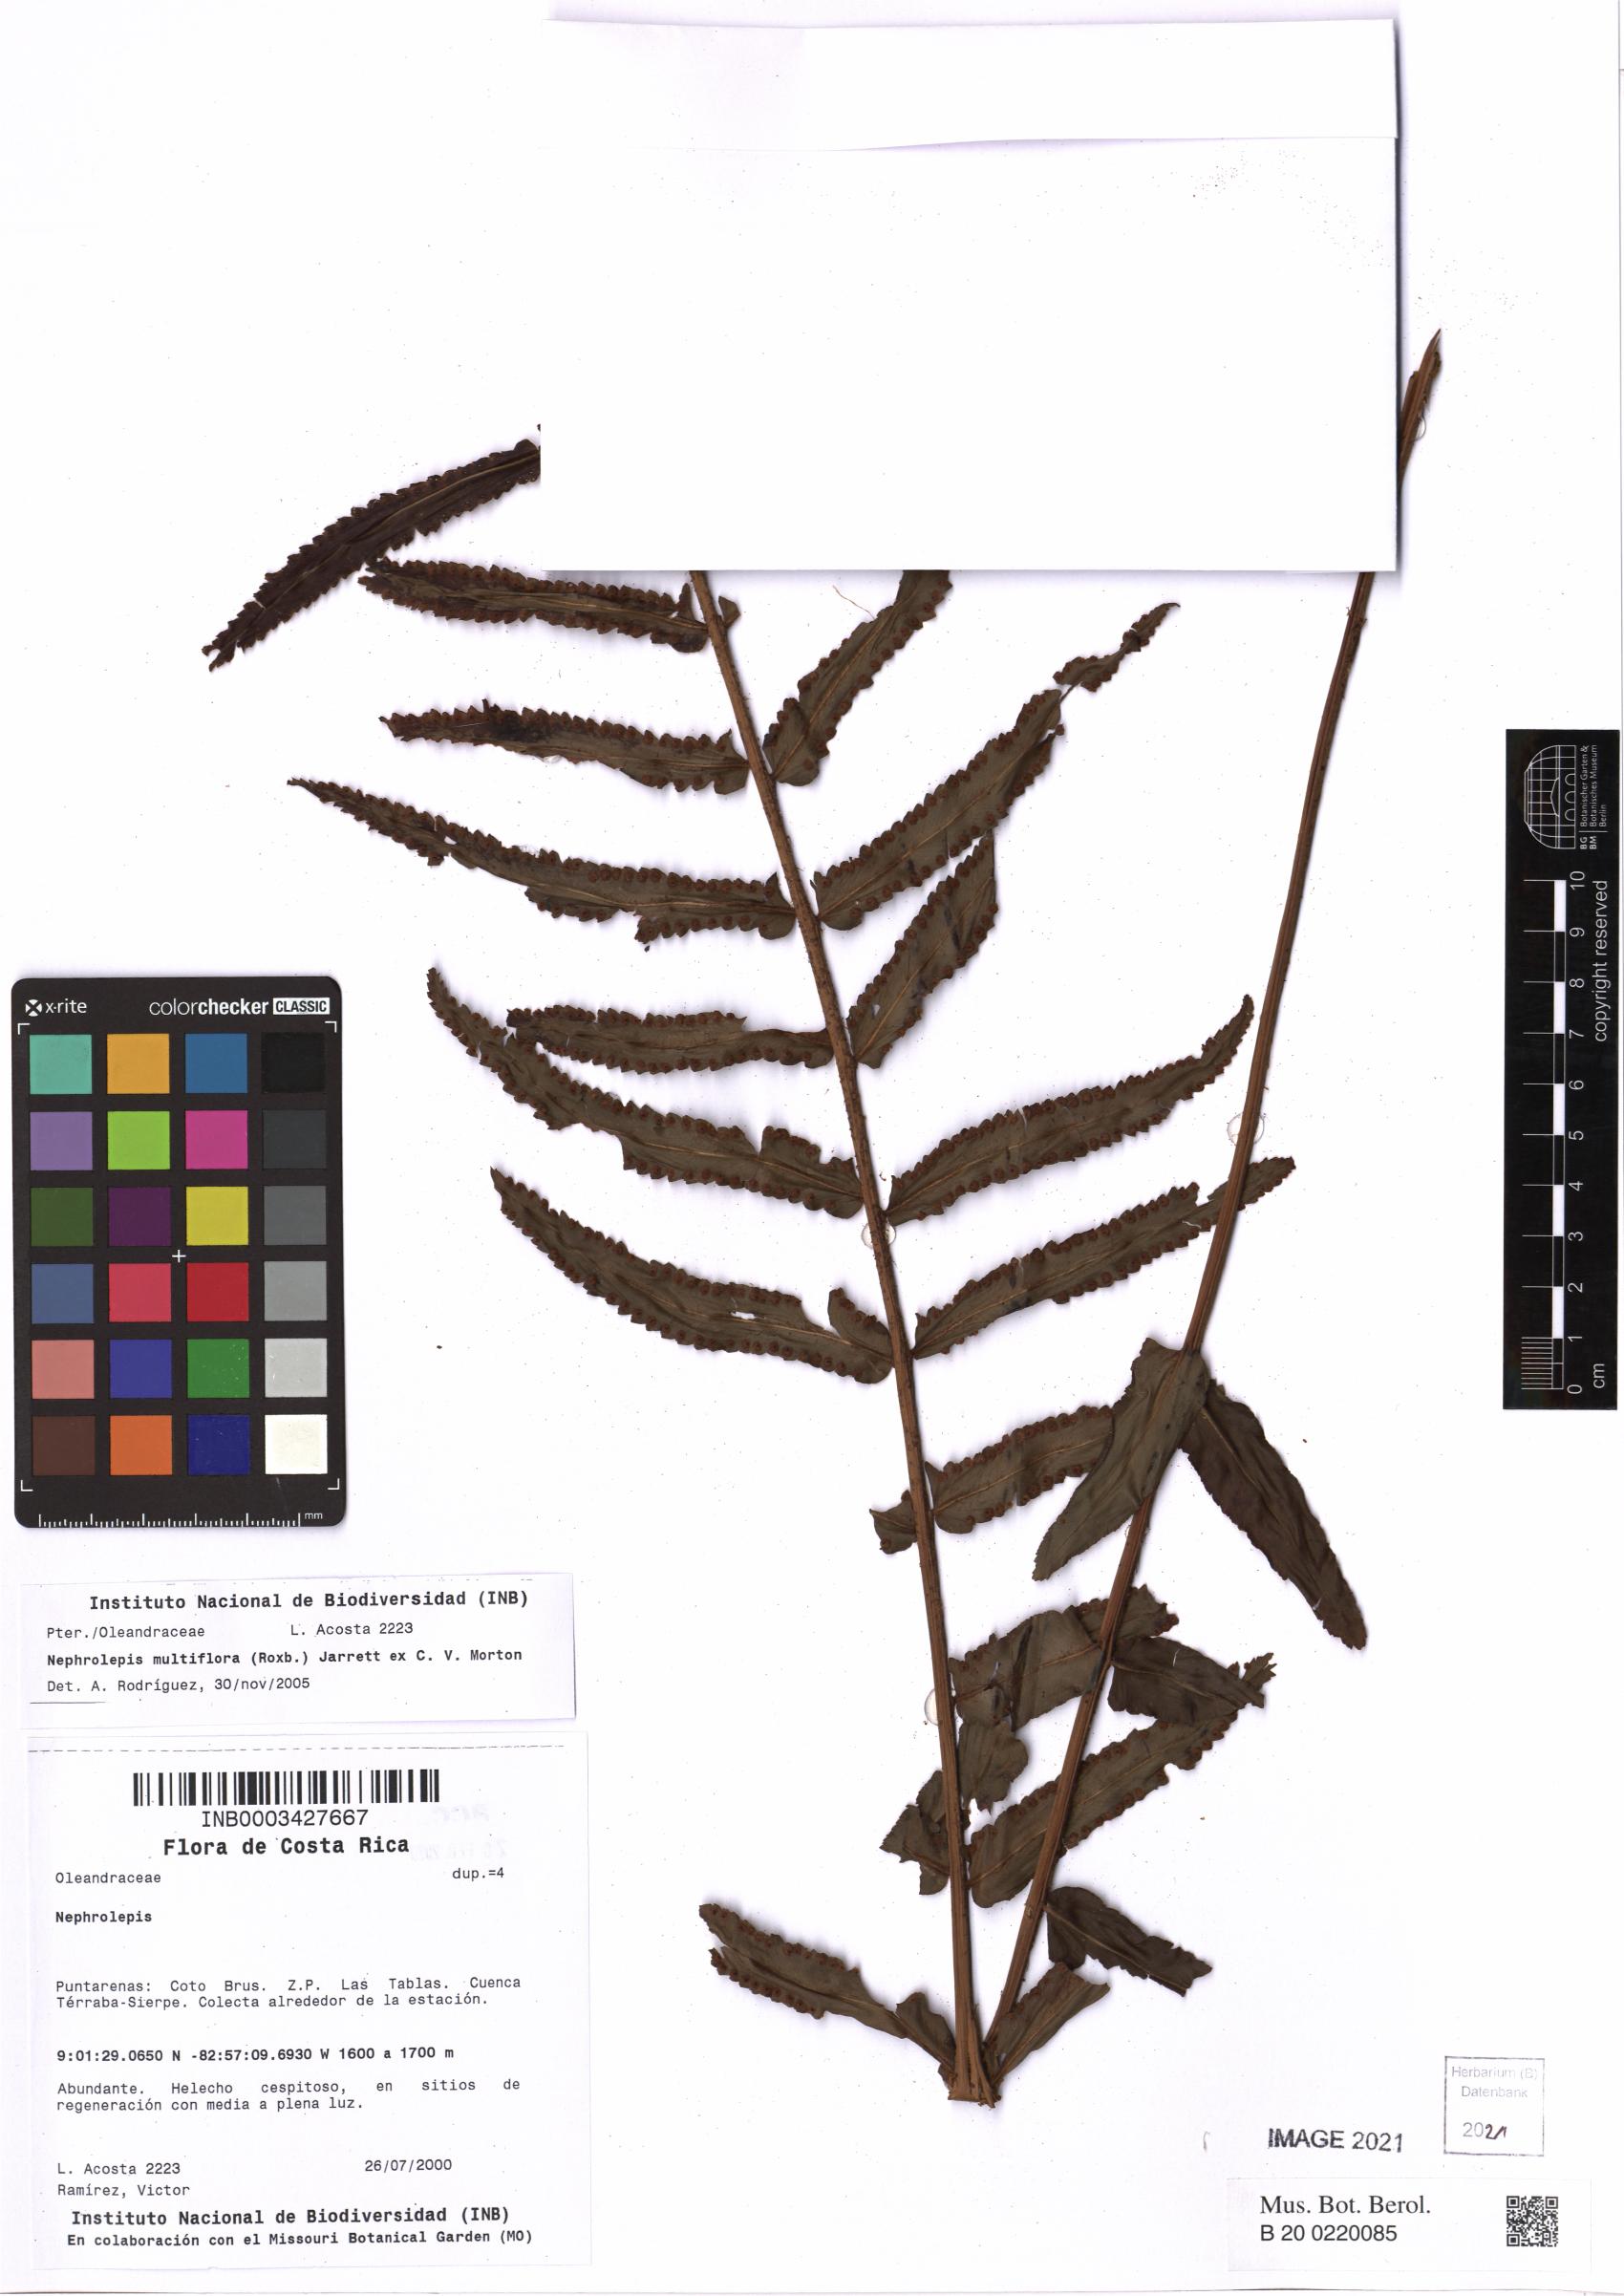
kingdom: Plantae
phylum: Tracheophyta
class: Polypodiopsida
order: Polypodiales
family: Nephrolepidaceae
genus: Nephrolepis
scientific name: Nephrolepis brownii
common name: Asian swordfern
